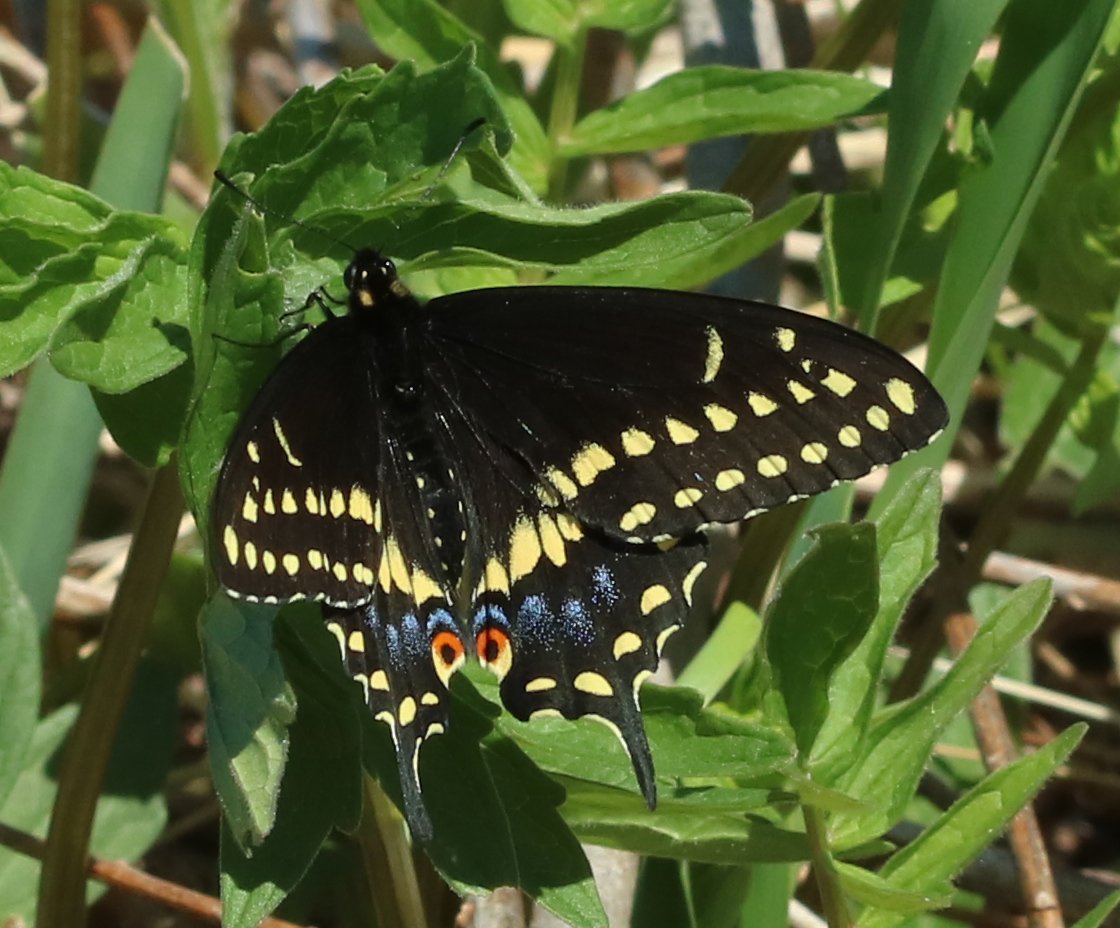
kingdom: Animalia
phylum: Arthropoda
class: Insecta
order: Lepidoptera
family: Papilionidae
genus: Papilio
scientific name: Papilio polyxenes
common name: Black Swallowtail
